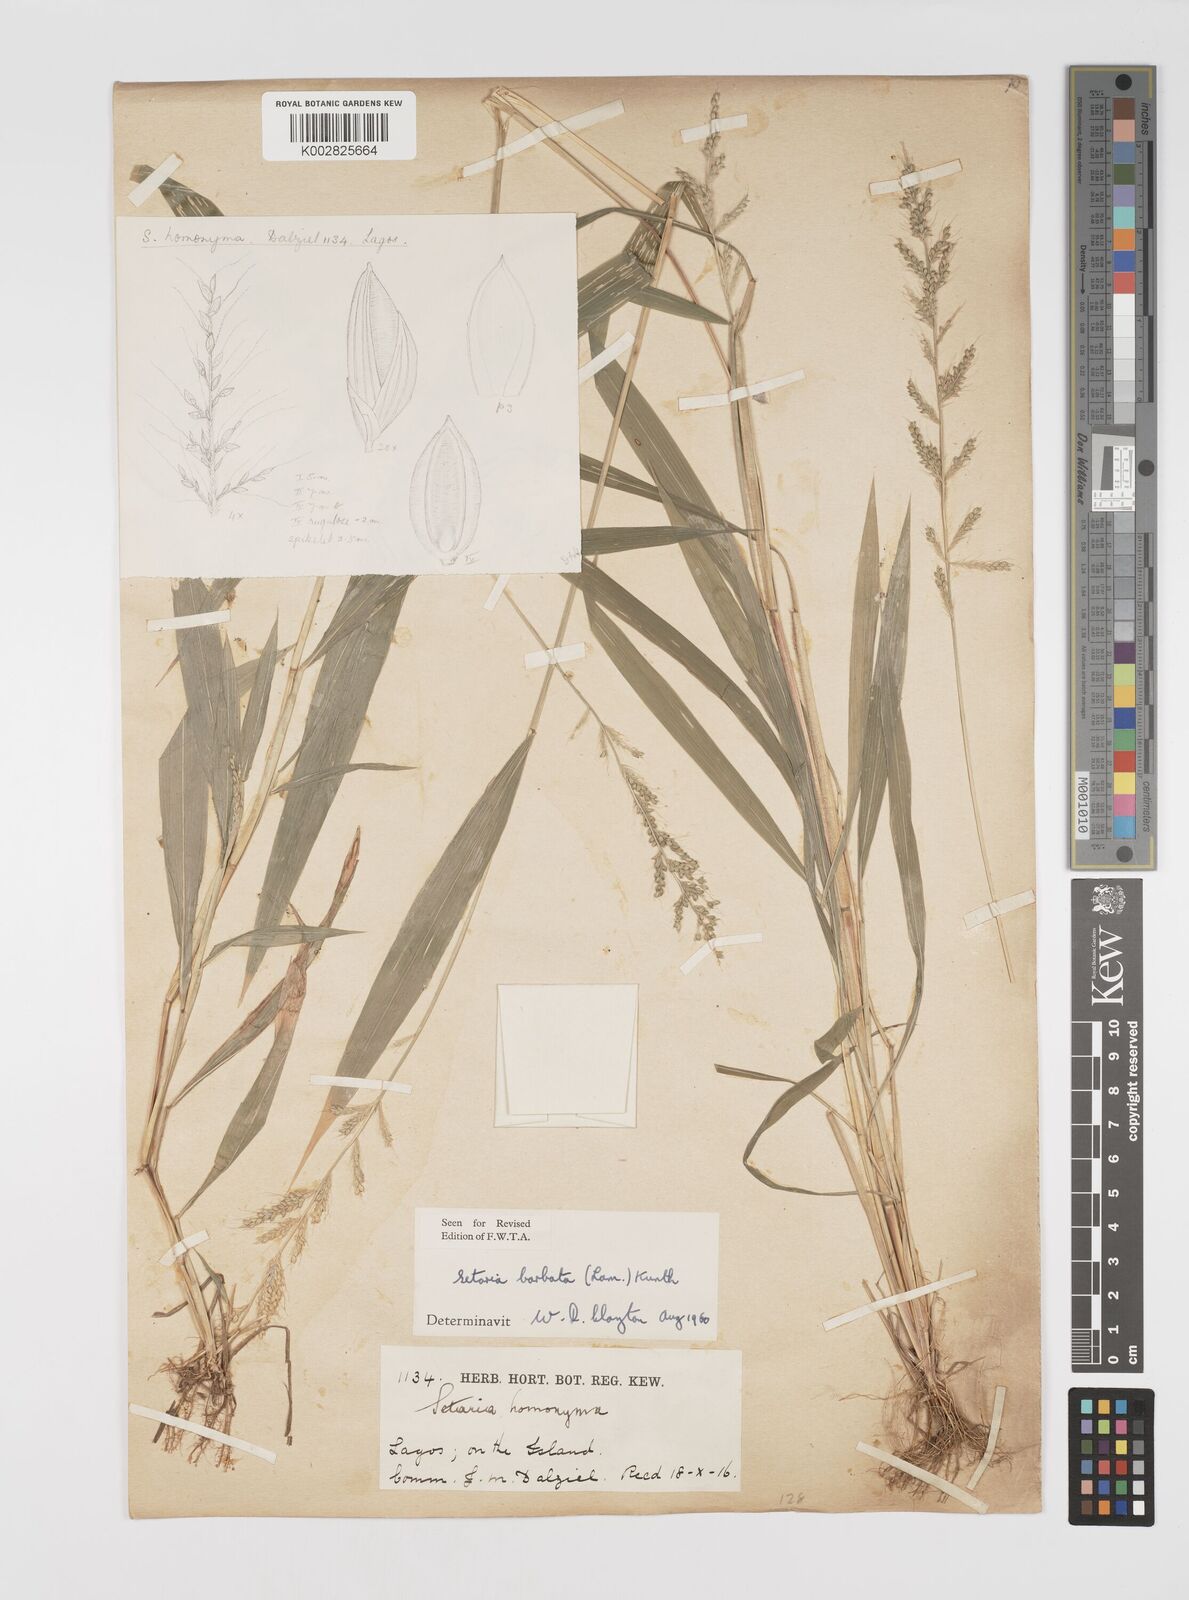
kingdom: Plantae
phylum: Tracheophyta
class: Liliopsida
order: Poales
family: Poaceae
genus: Setaria
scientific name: Setaria barbata
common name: East indian bristlegrass
